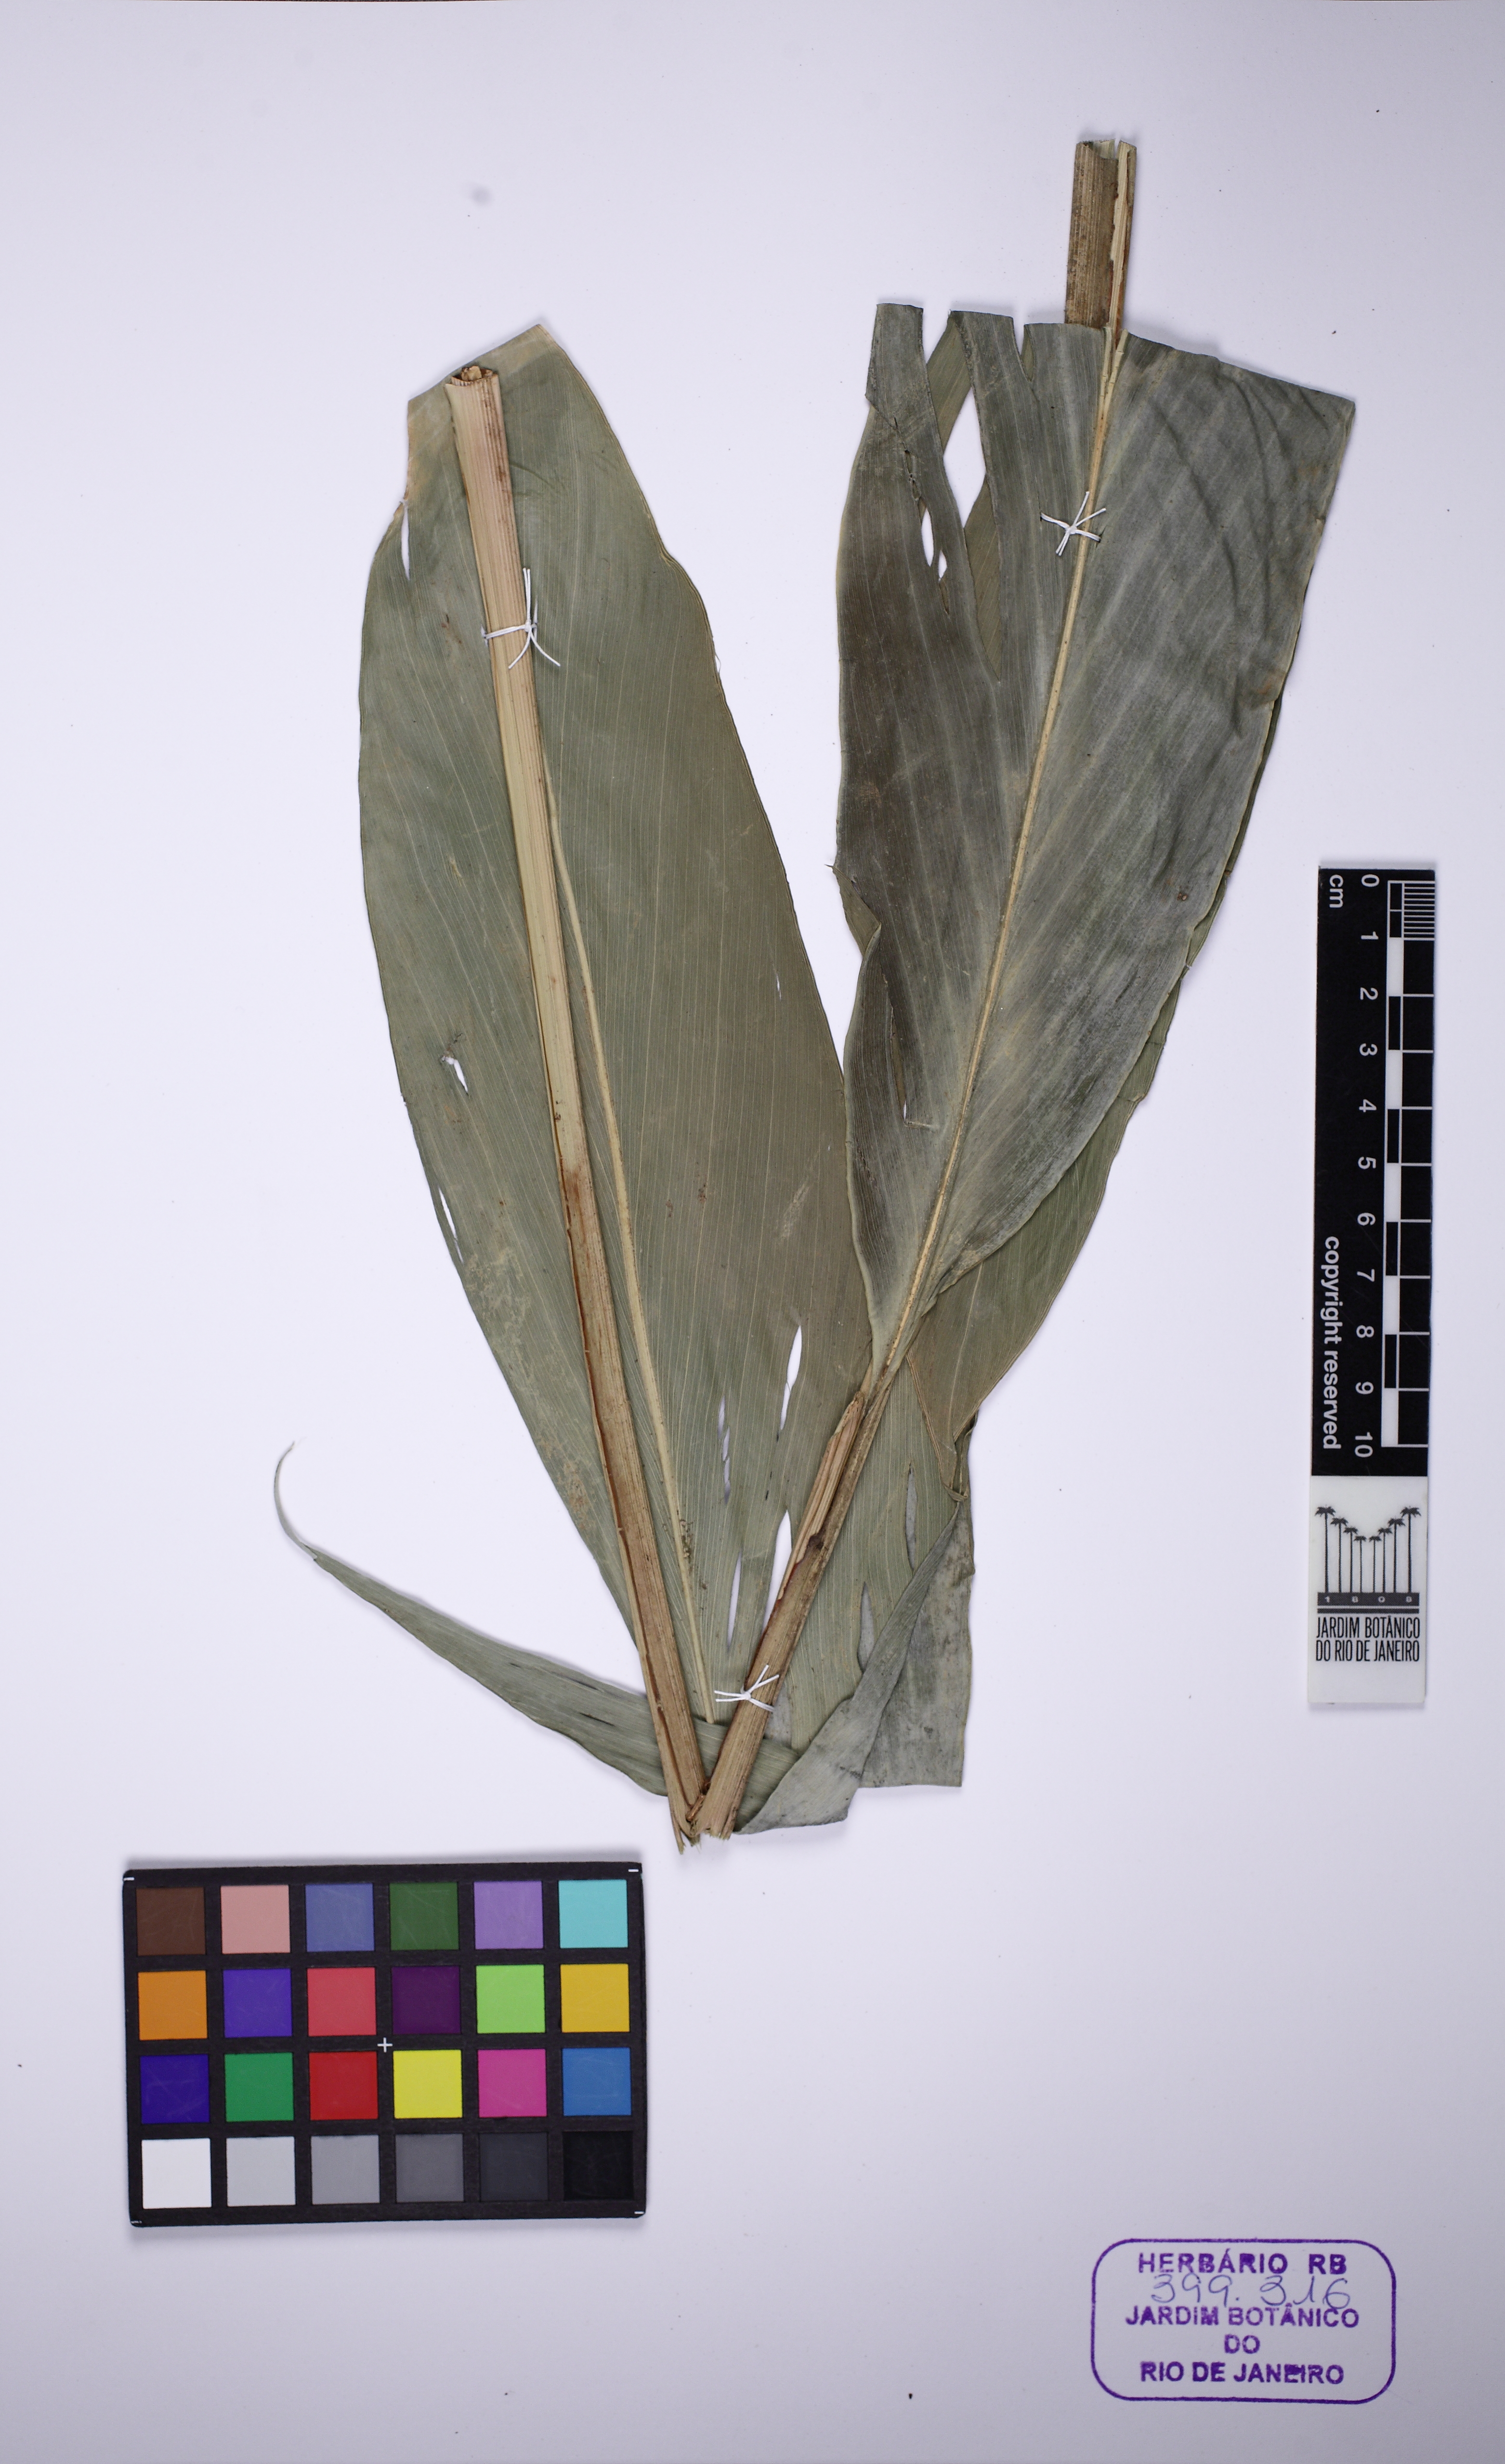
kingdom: Plantae
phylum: Tracheophyta
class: Liliopsida
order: Zingiberales
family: Zingiberaceae
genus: Renealmia
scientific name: Renealmia chrysotricha
